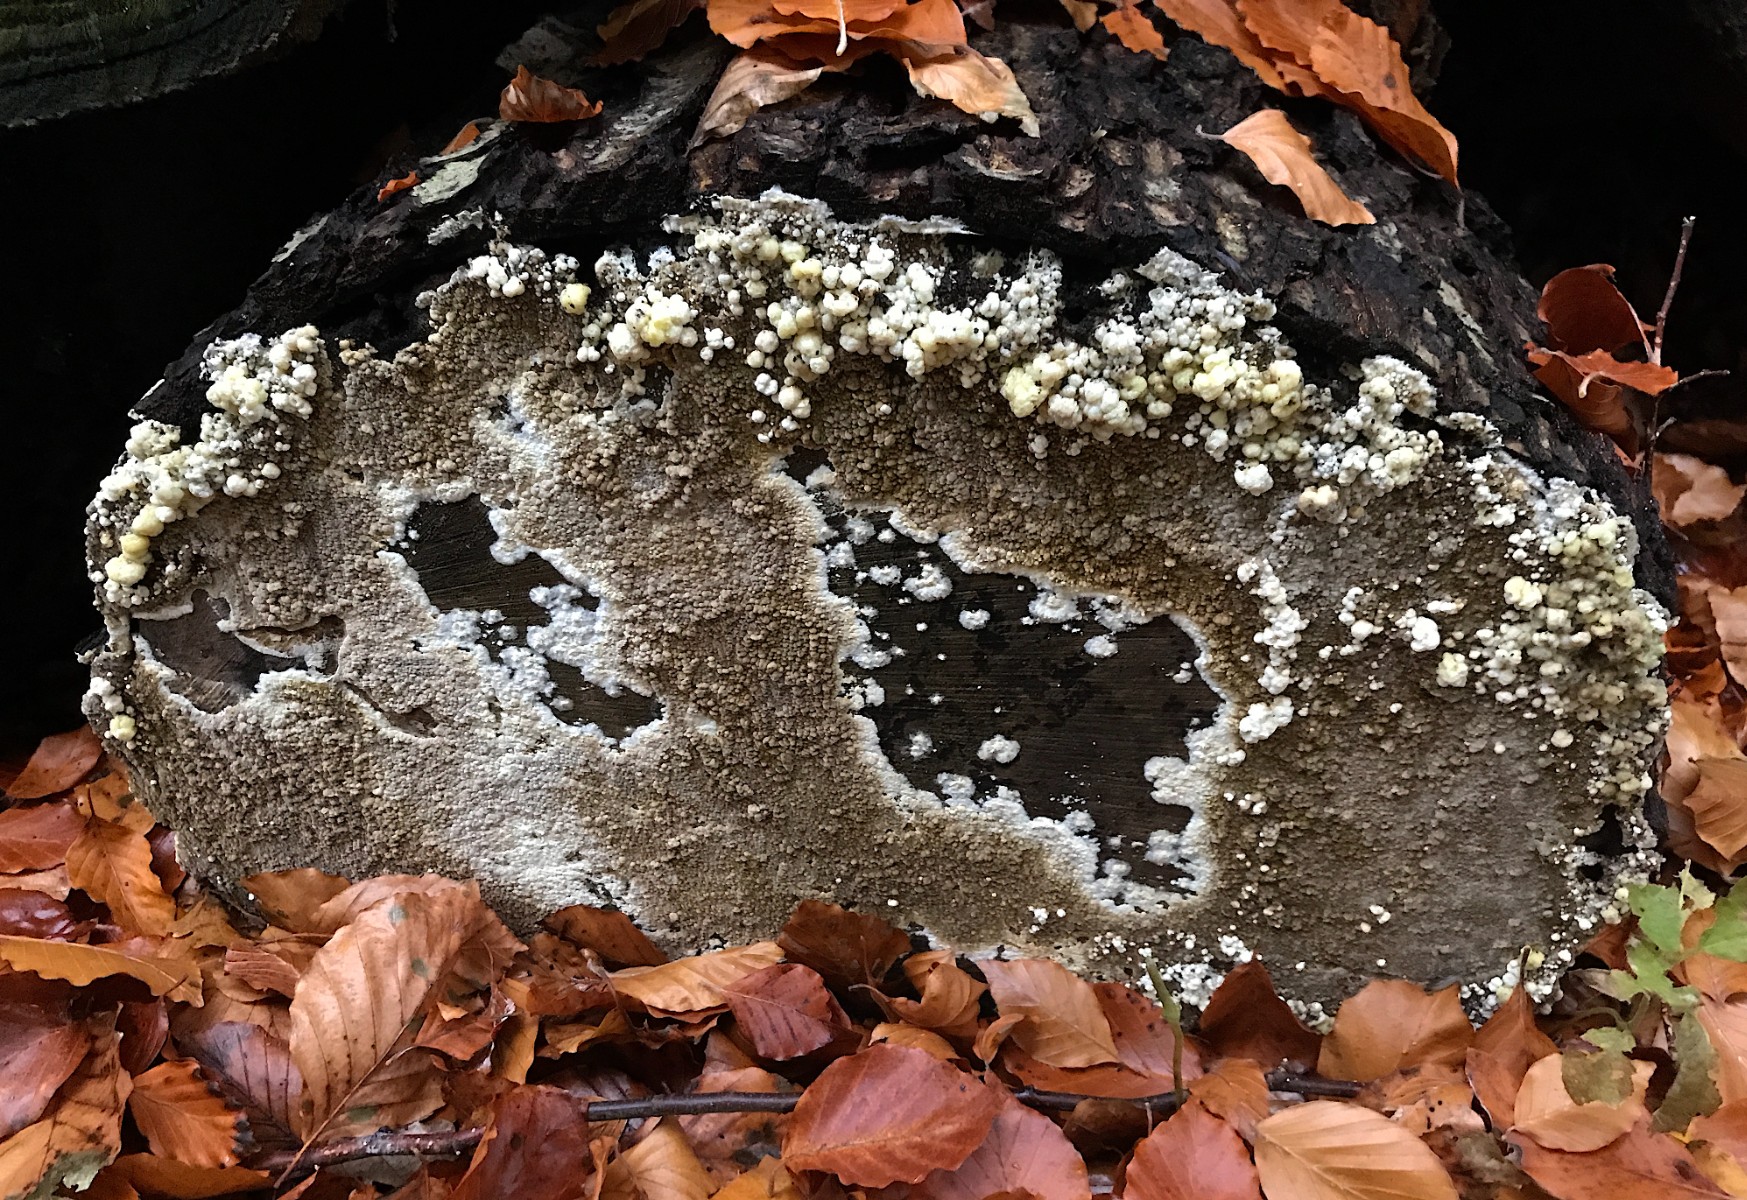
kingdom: Fungi
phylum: Basidiomycota
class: Agaricomycetes
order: Boletales
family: Coniophoraceae
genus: Coniophora
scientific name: Coniophora puteana
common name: gul tømmersvamp
